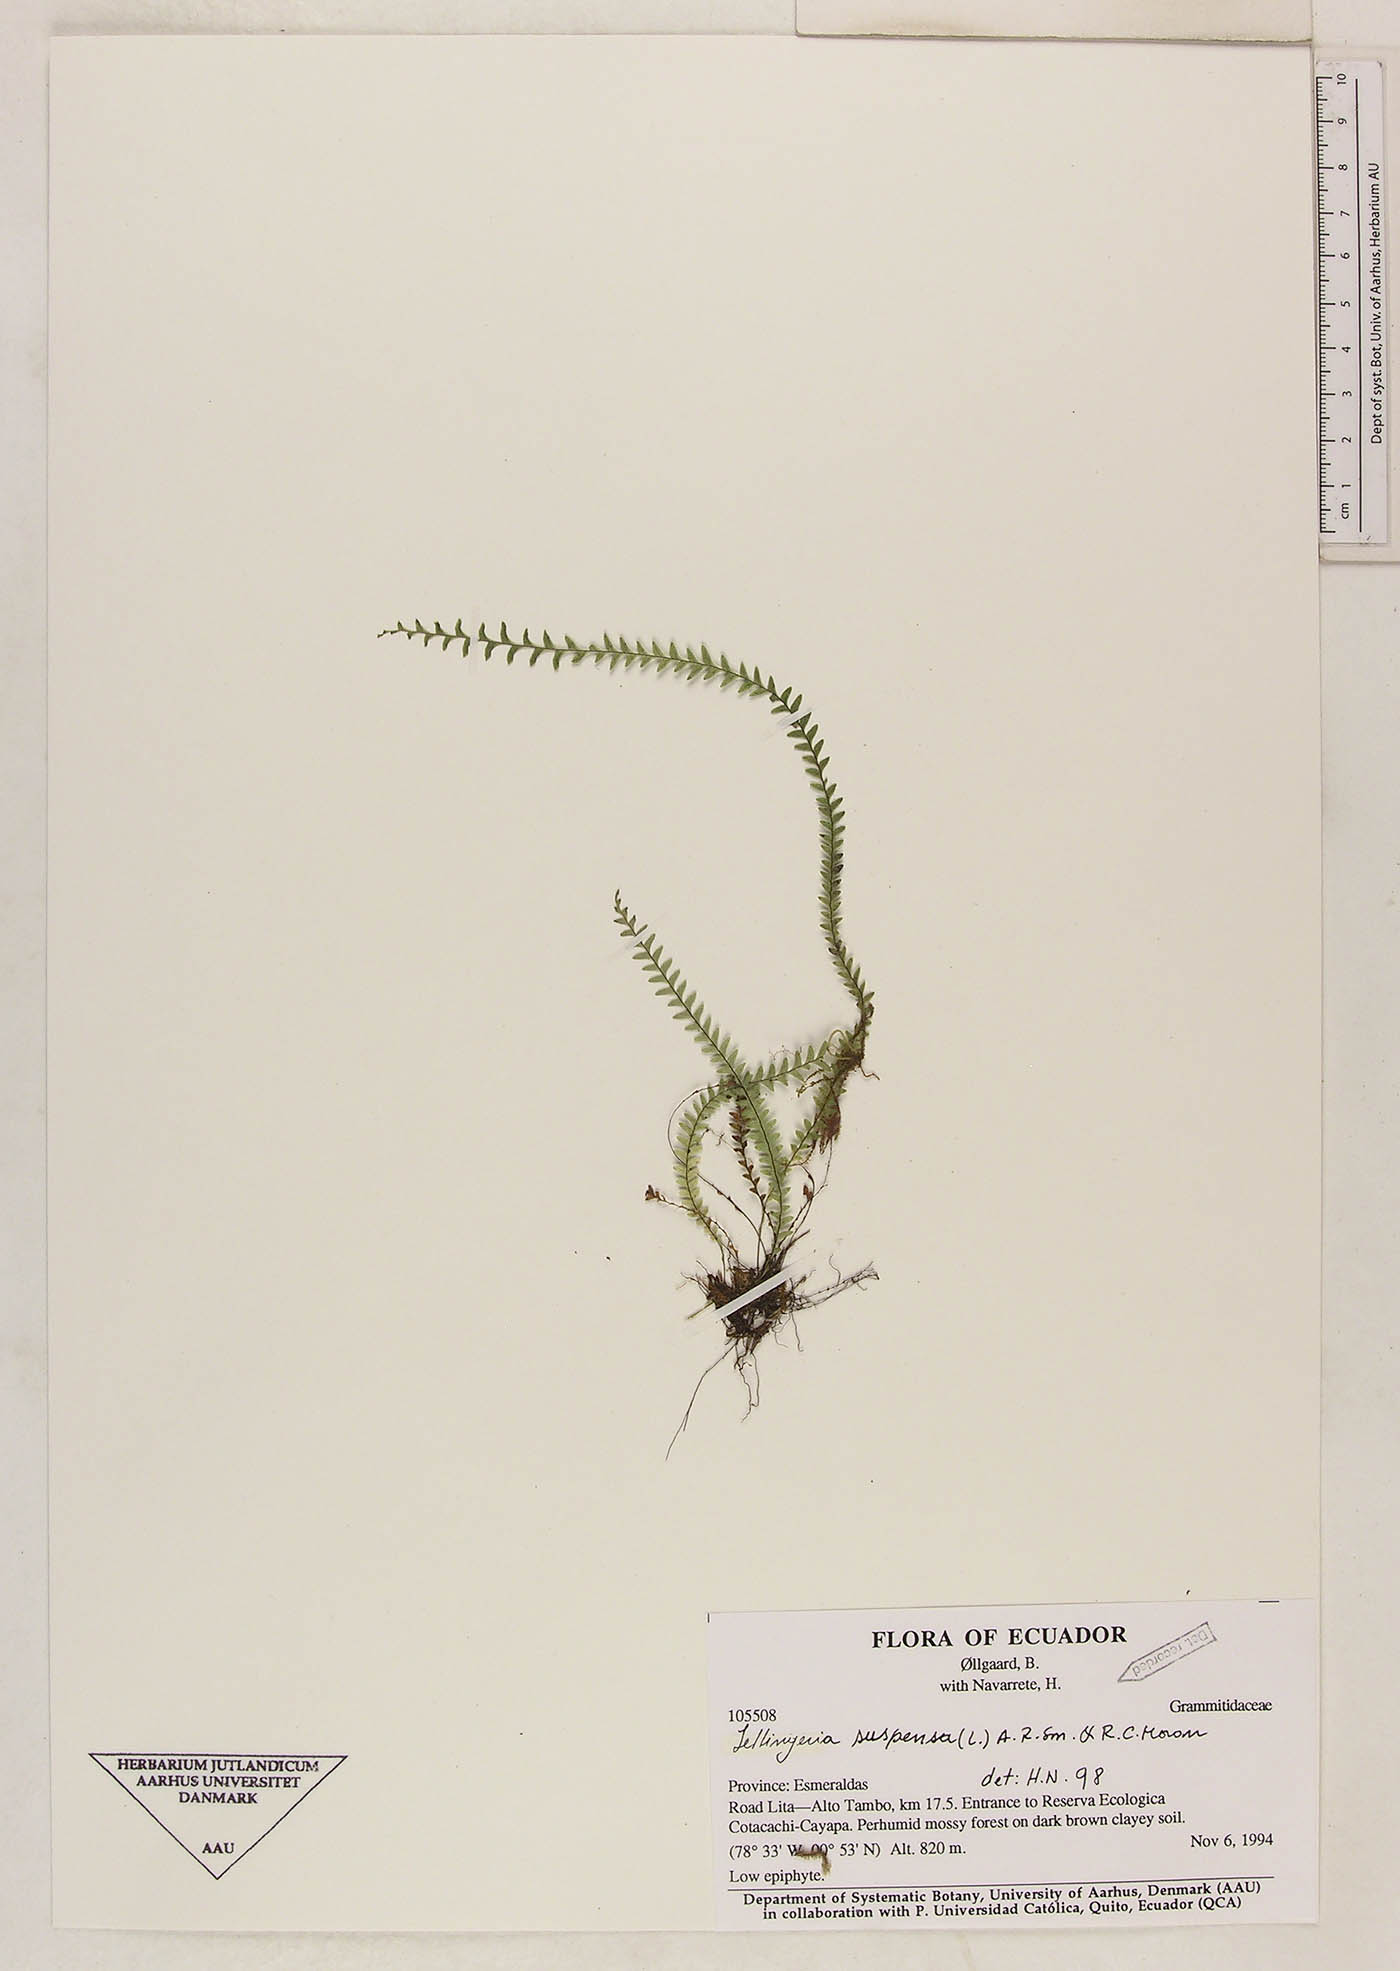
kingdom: Plantae
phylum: Tracheophyta
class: Polypodiopsida
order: Polypodiales
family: Polypodiaceae
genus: Lellingeria
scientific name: Lellingeria suspensa
